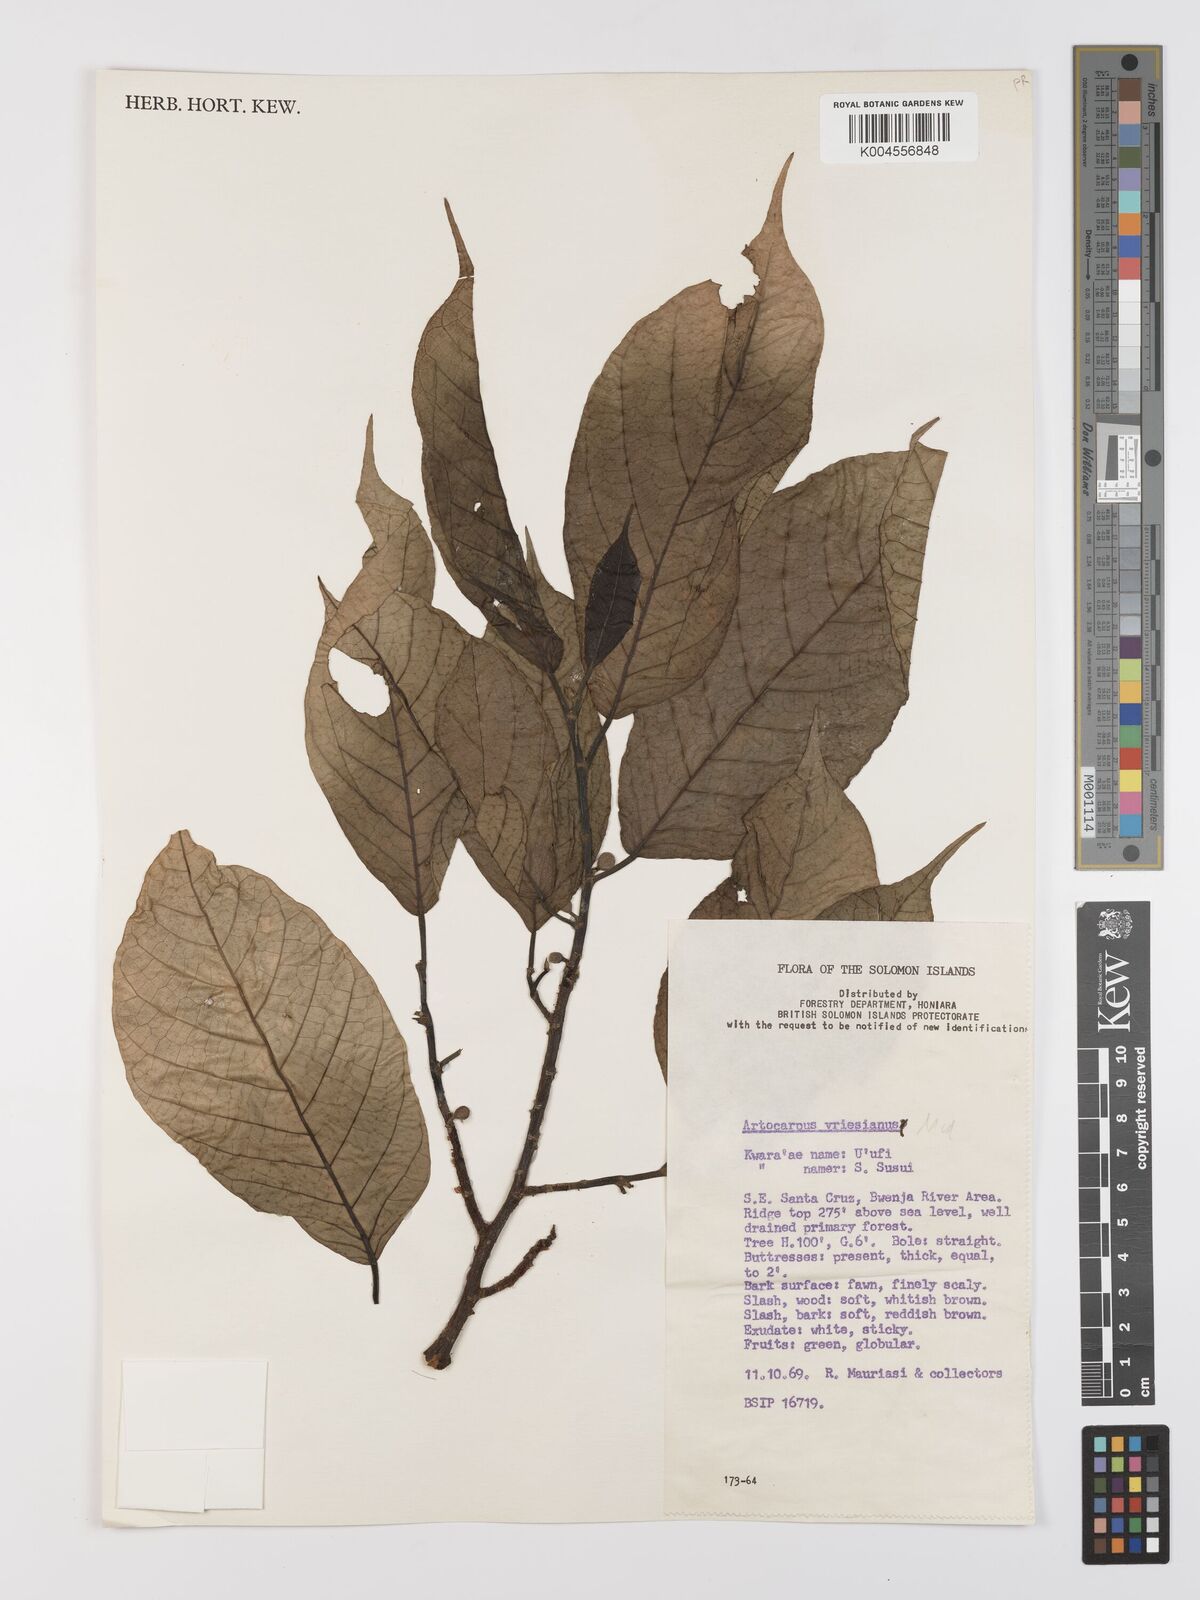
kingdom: Plantae
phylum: Tracheophyta
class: Magnoliopsida
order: Rosales
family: Moraceae
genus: Artocarpus
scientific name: Artocarpus vrieseanus
